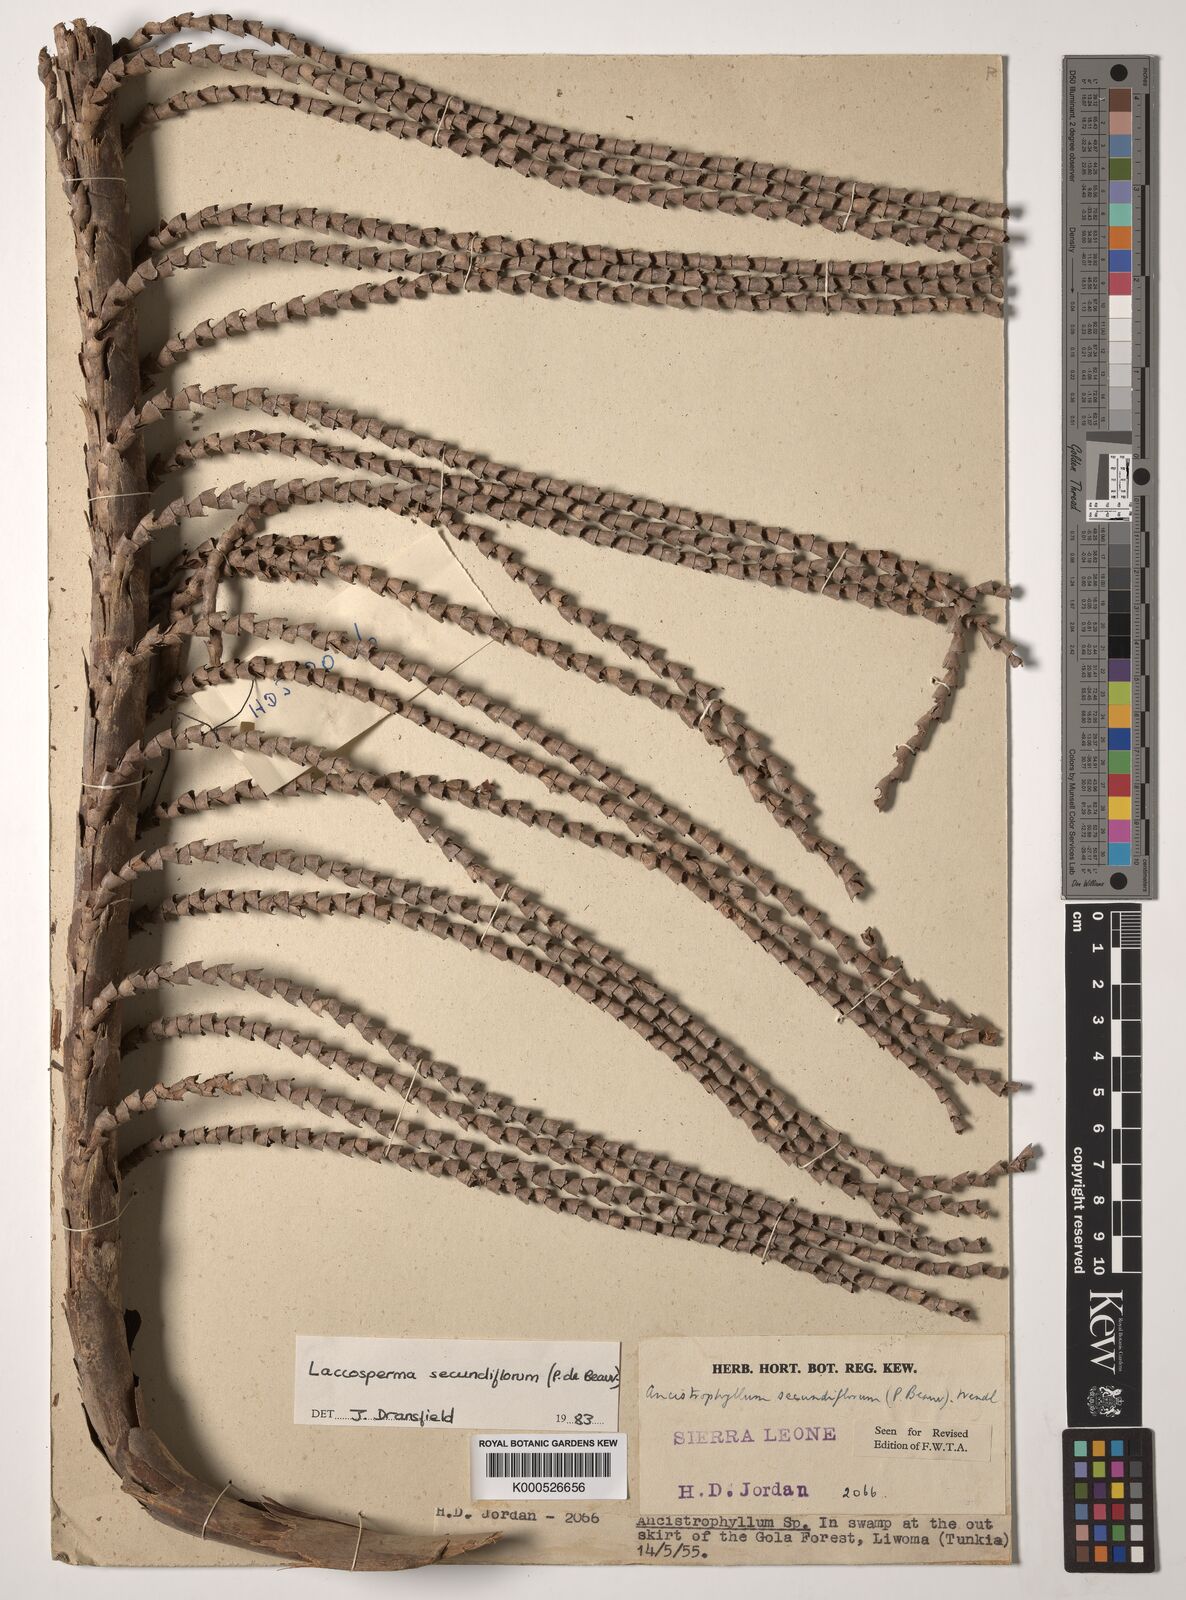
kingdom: Plantae
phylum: Tracheophyta
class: Liliopsida
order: Arecales
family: Arecaceae
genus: Laccosperma
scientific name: Laccosperma secundiflorum
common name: Rattan
